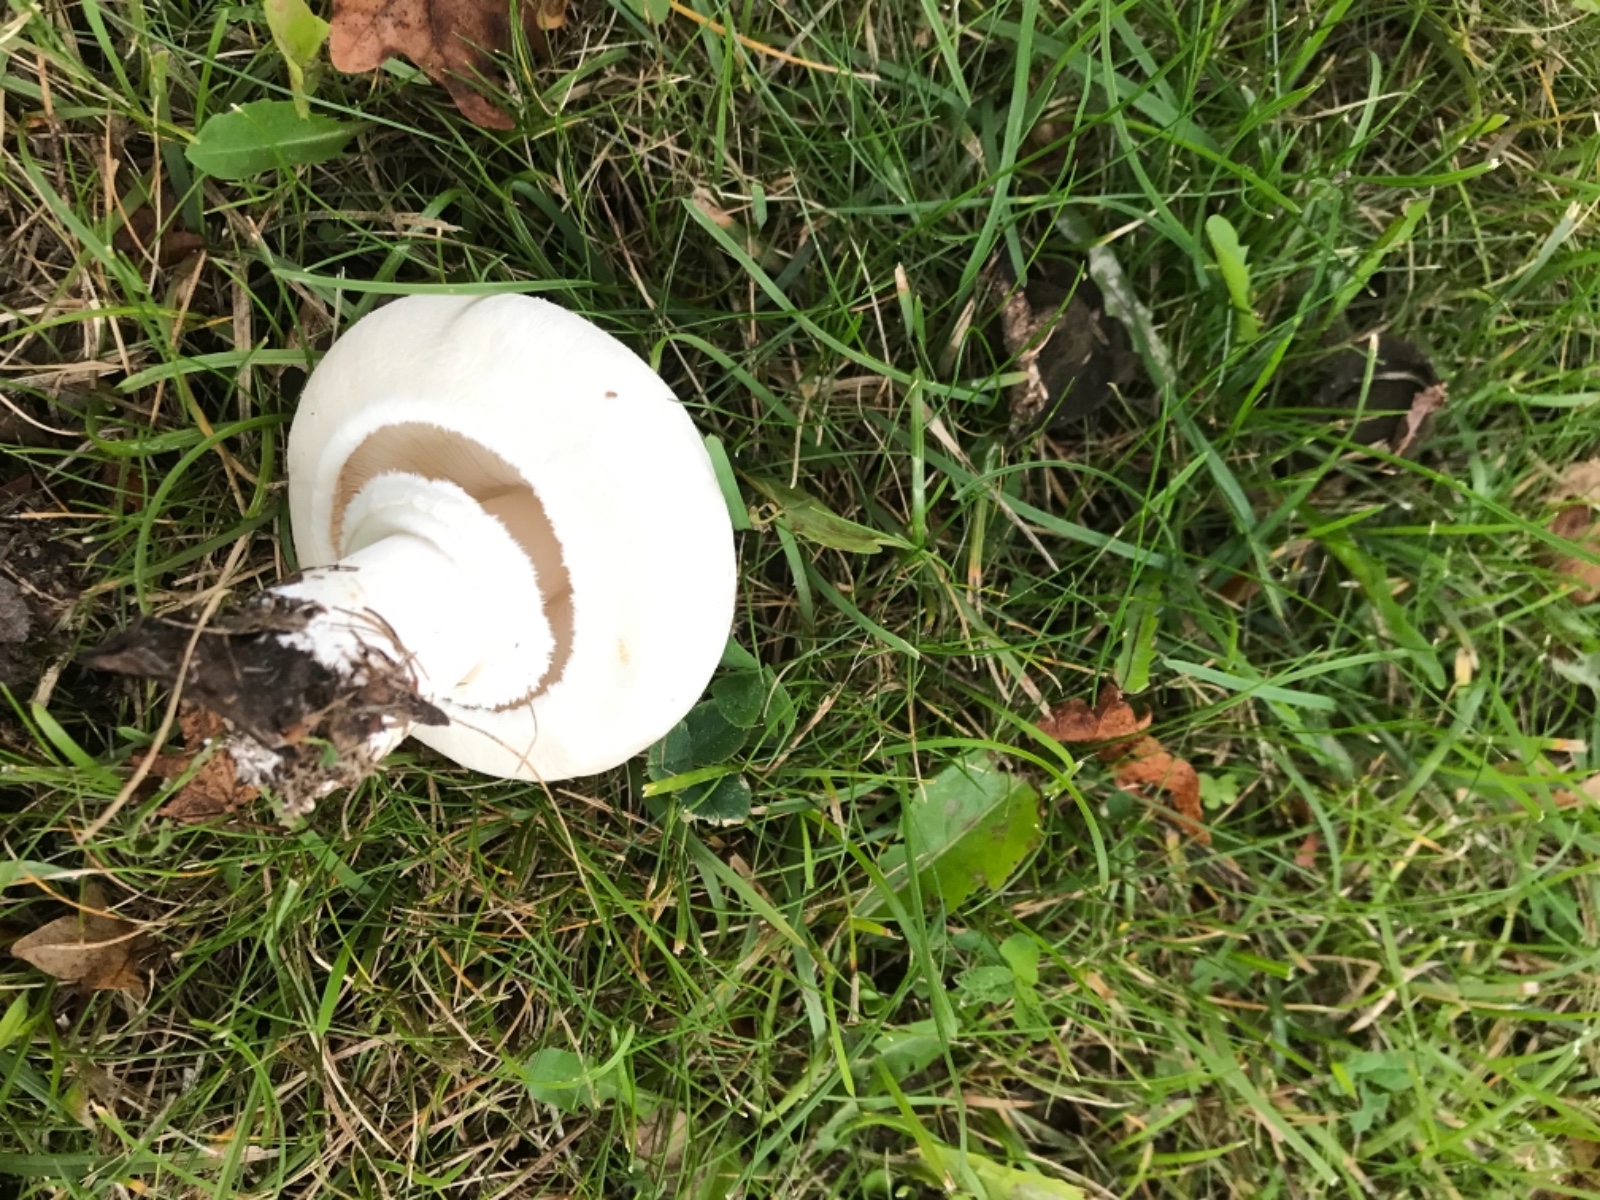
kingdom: Fungi
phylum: Basidiomycota
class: Agaricomycetes
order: Agaricales
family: Agaricaceae
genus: Leucoagaricus
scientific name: Leucoagaricus leucothites
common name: rosabladet silkehat
